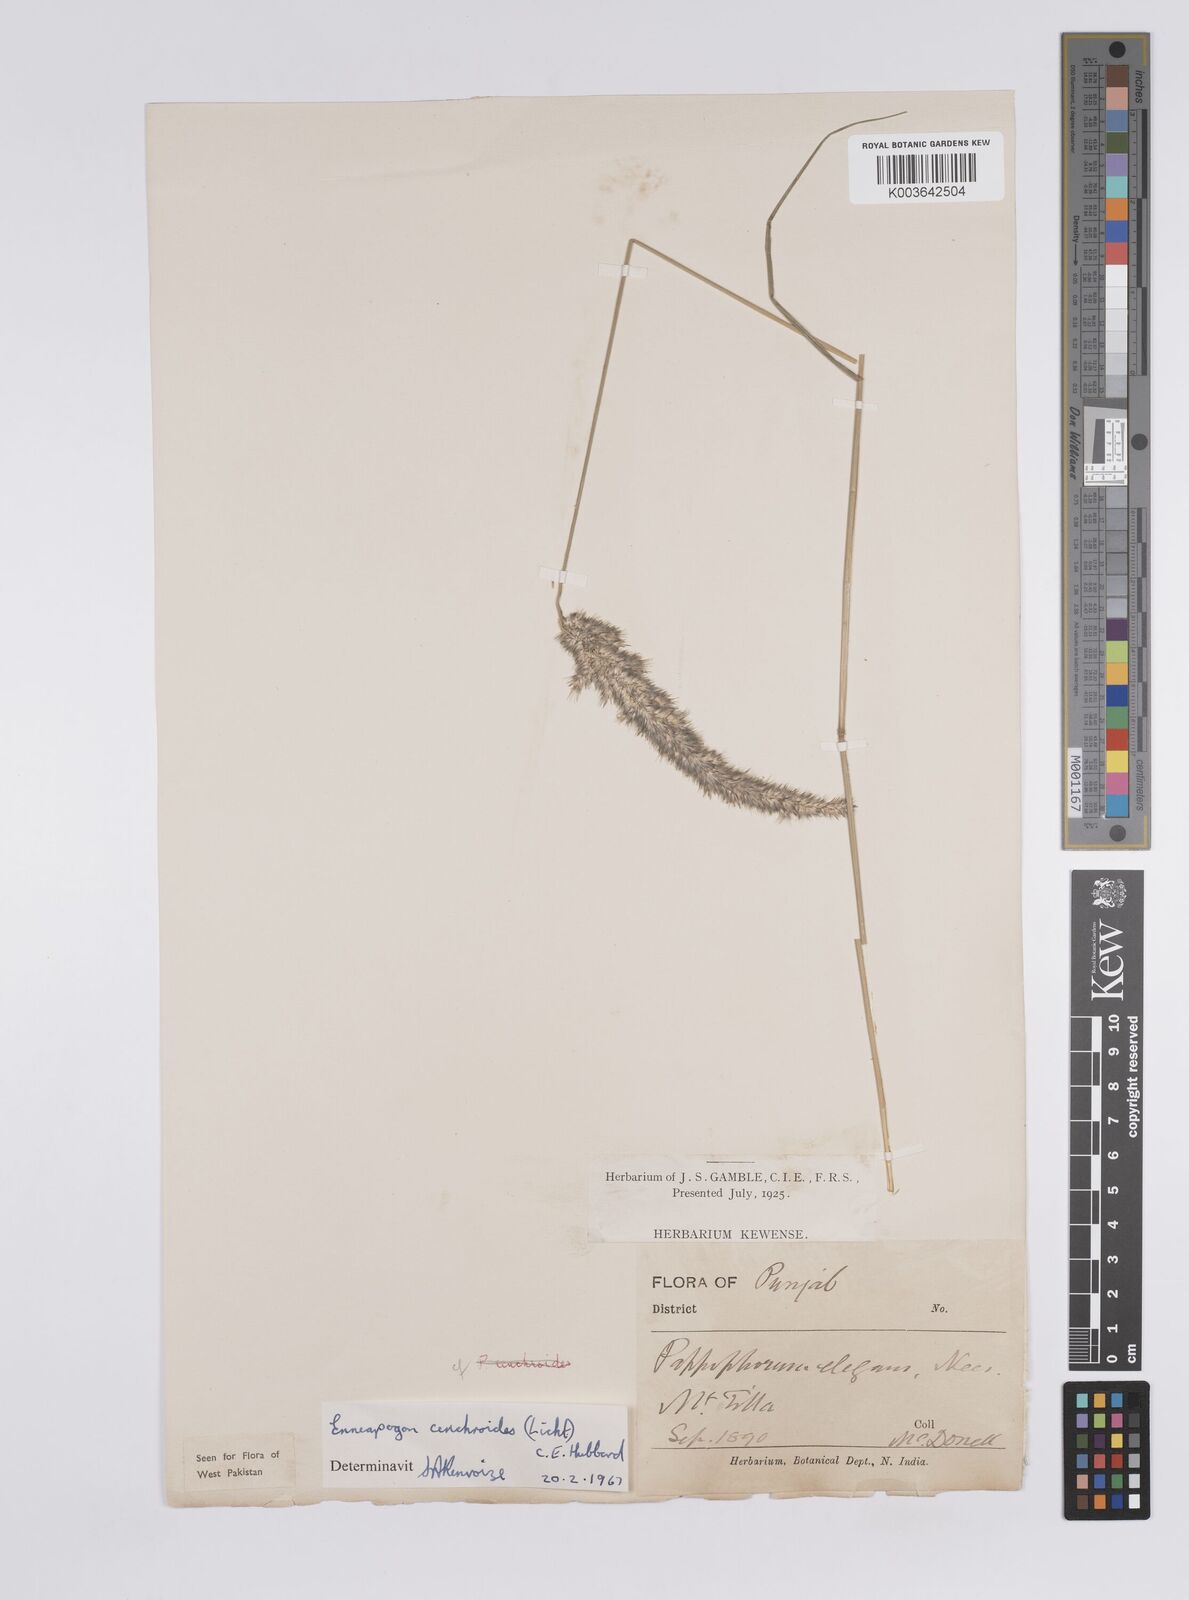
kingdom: Plantae
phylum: Tracheophyta
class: Liliopsida
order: Poales
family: Poaceae
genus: Enneapogon
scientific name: Enneapogon cenchroides
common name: Soft feather pappusgrass
